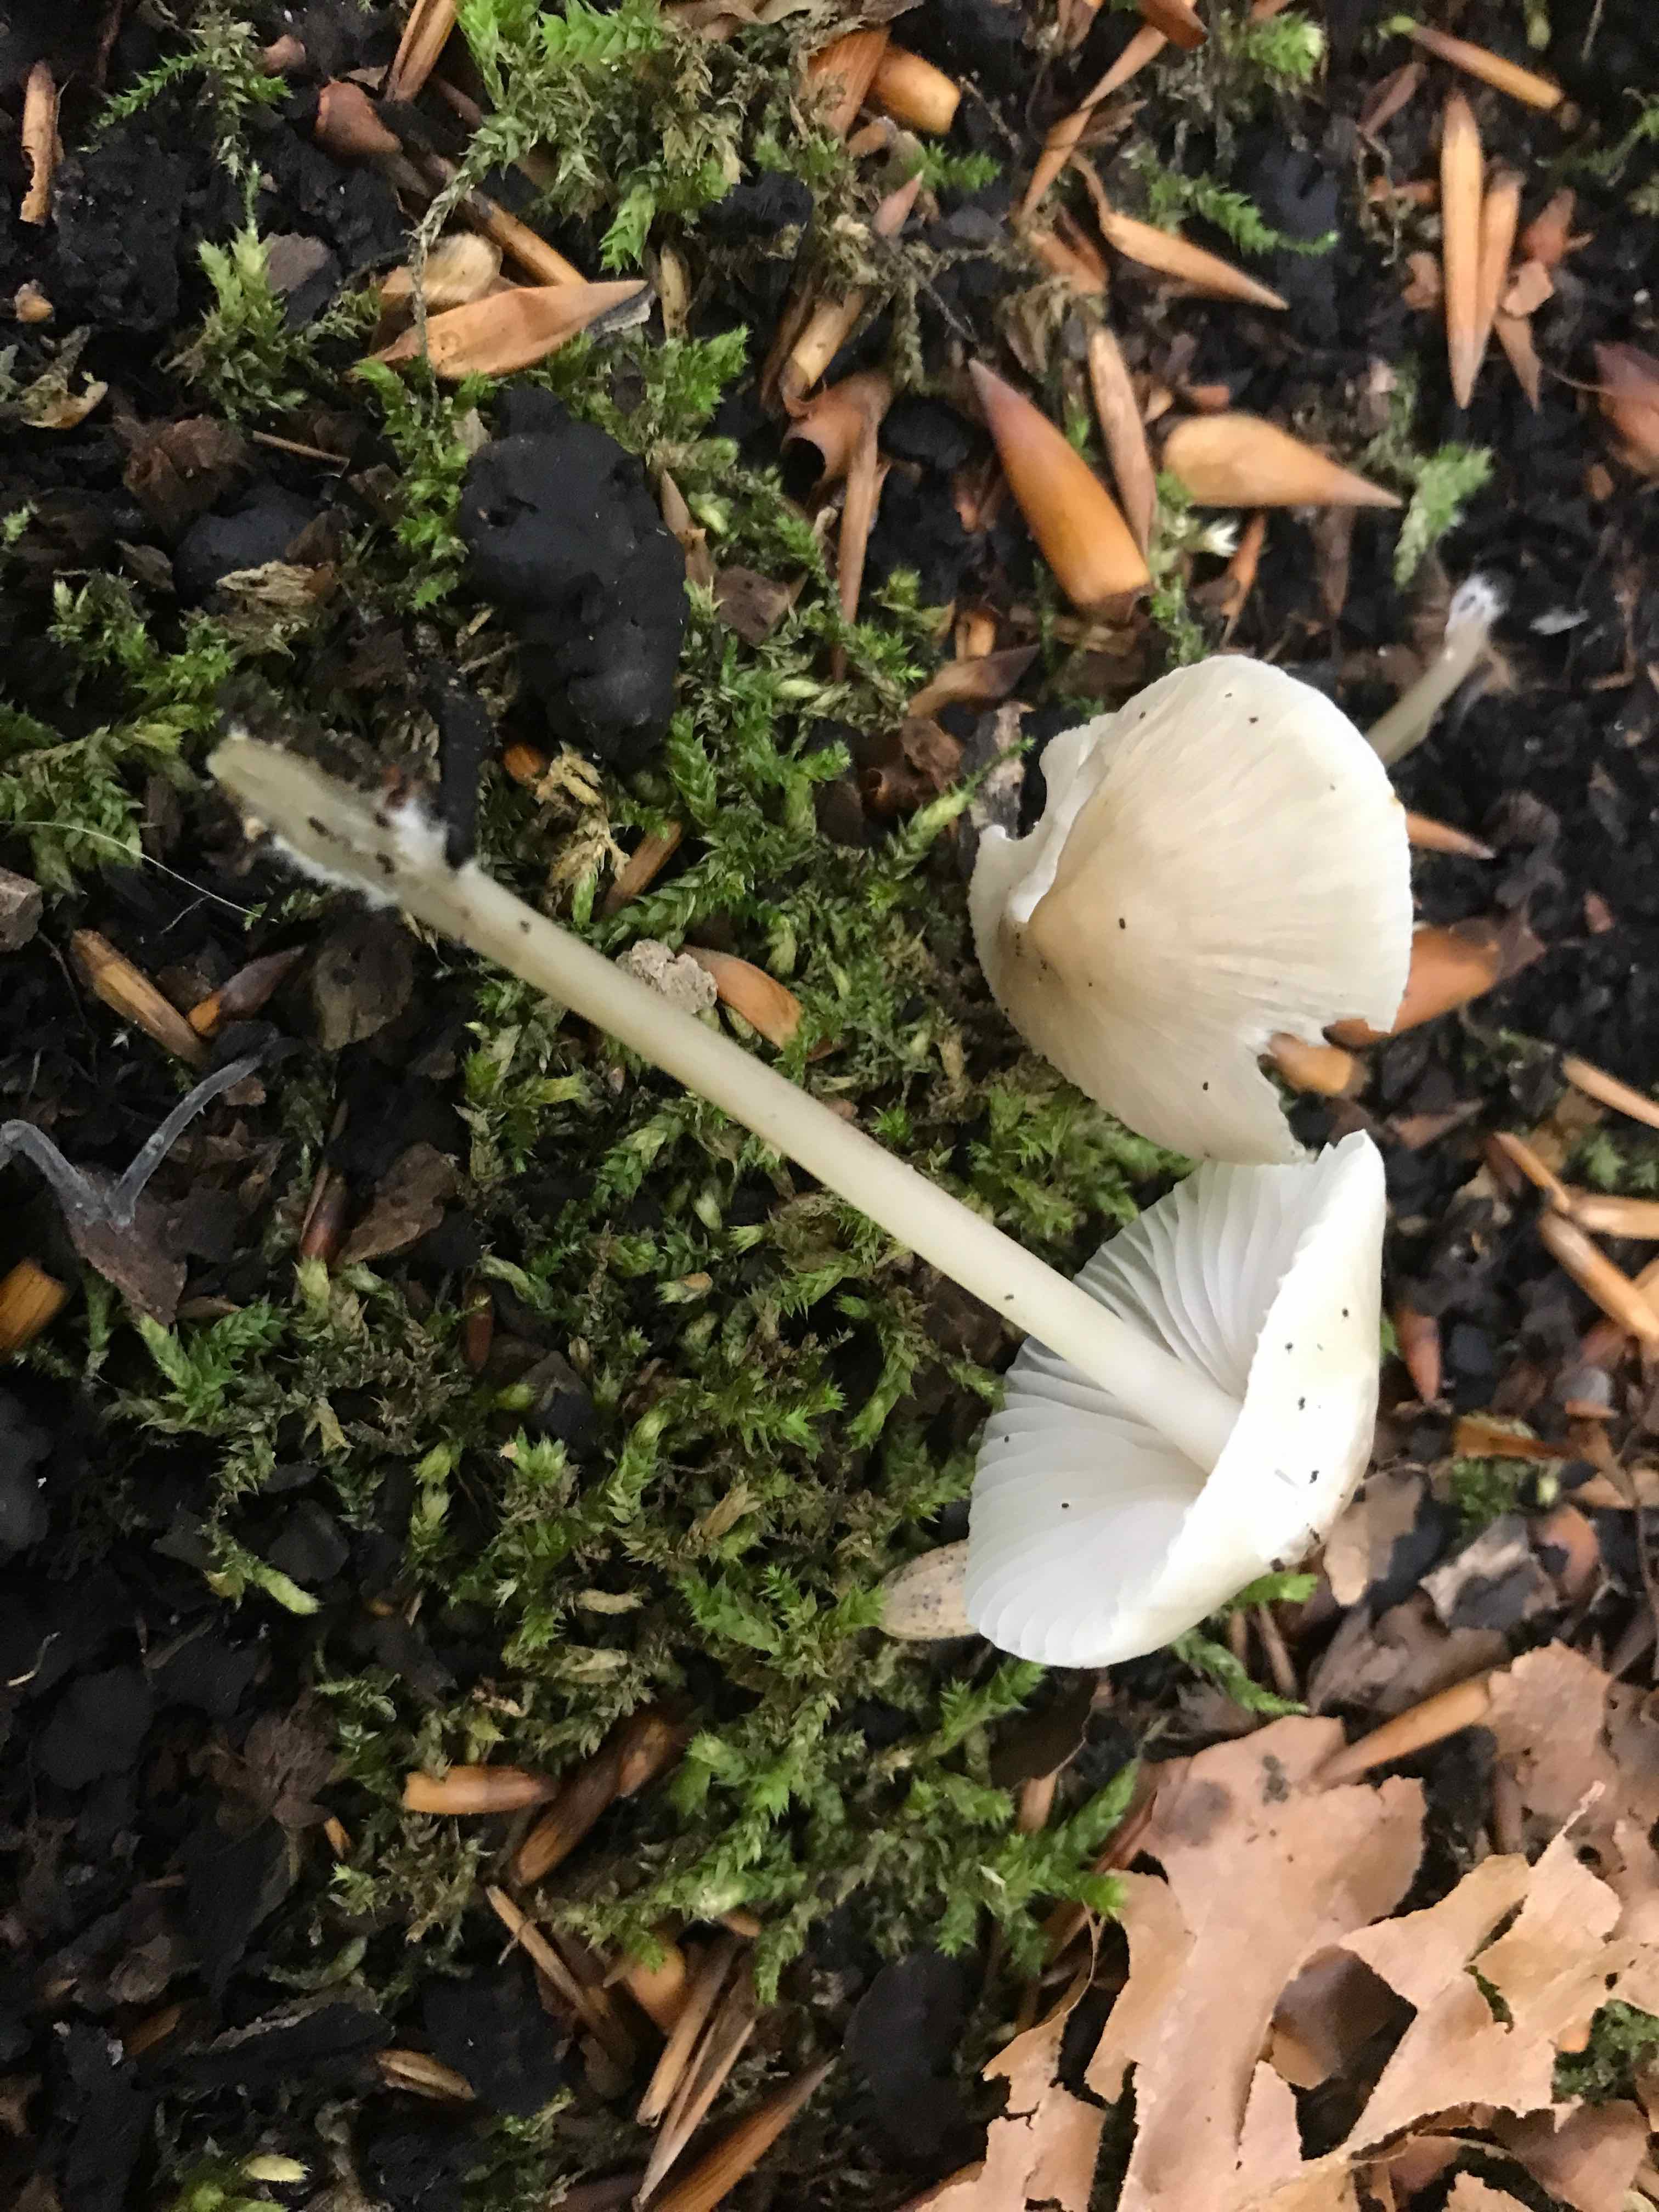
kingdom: Fungi
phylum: Basidiomycota
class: Agaricomycetes
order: Agaricales
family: Mycenaceae
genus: Mycena
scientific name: Mycena galericulata
